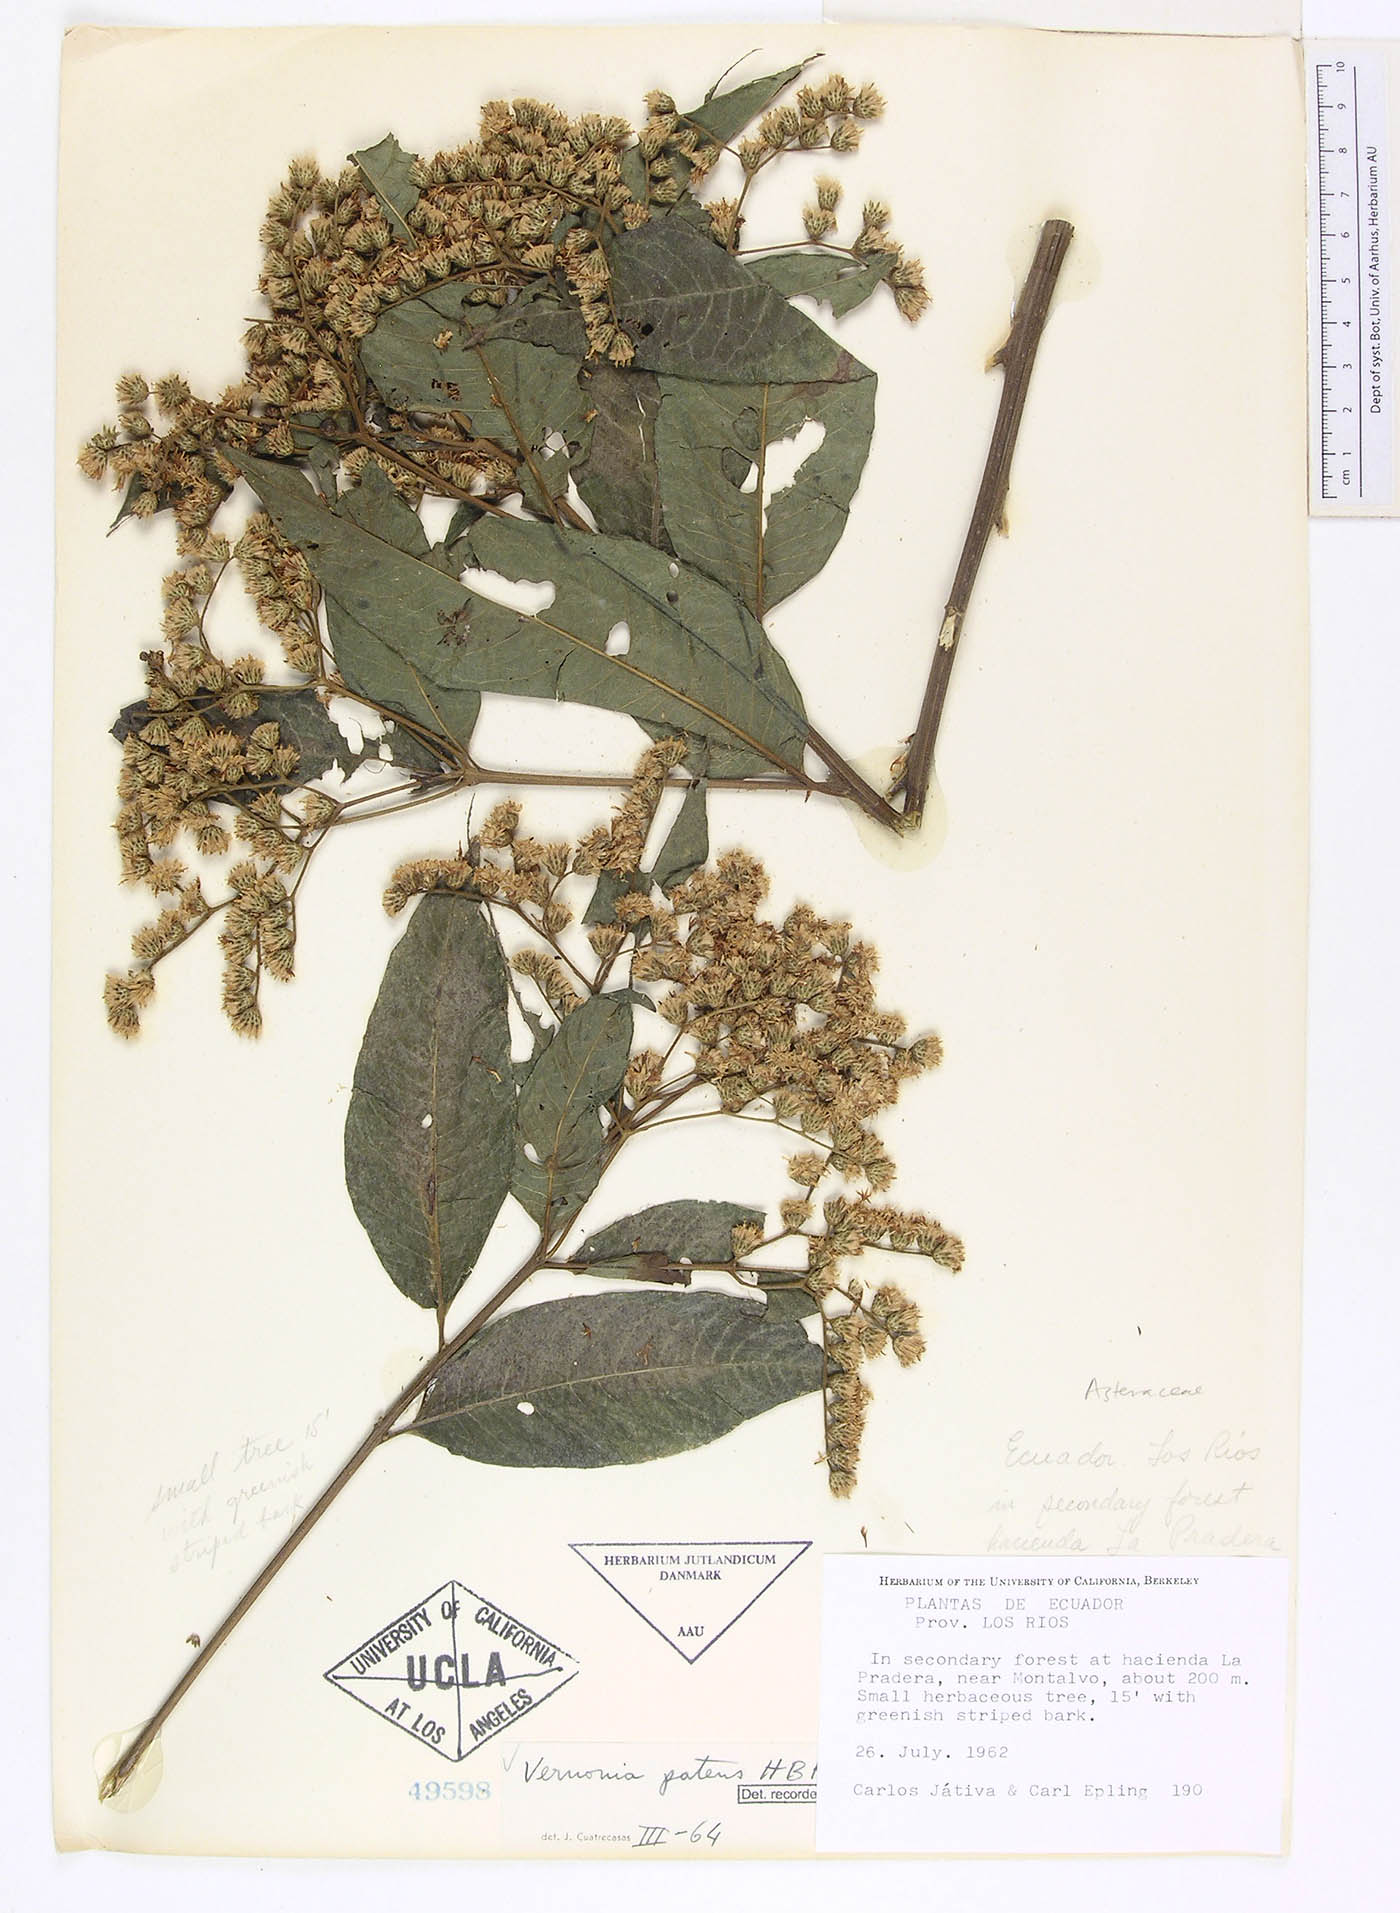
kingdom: Plantae
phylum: Tracheophyta
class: Magnoliopsida
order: Asterales
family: Asteraceae
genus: Vernonanthura
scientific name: Vernonanthura patens
